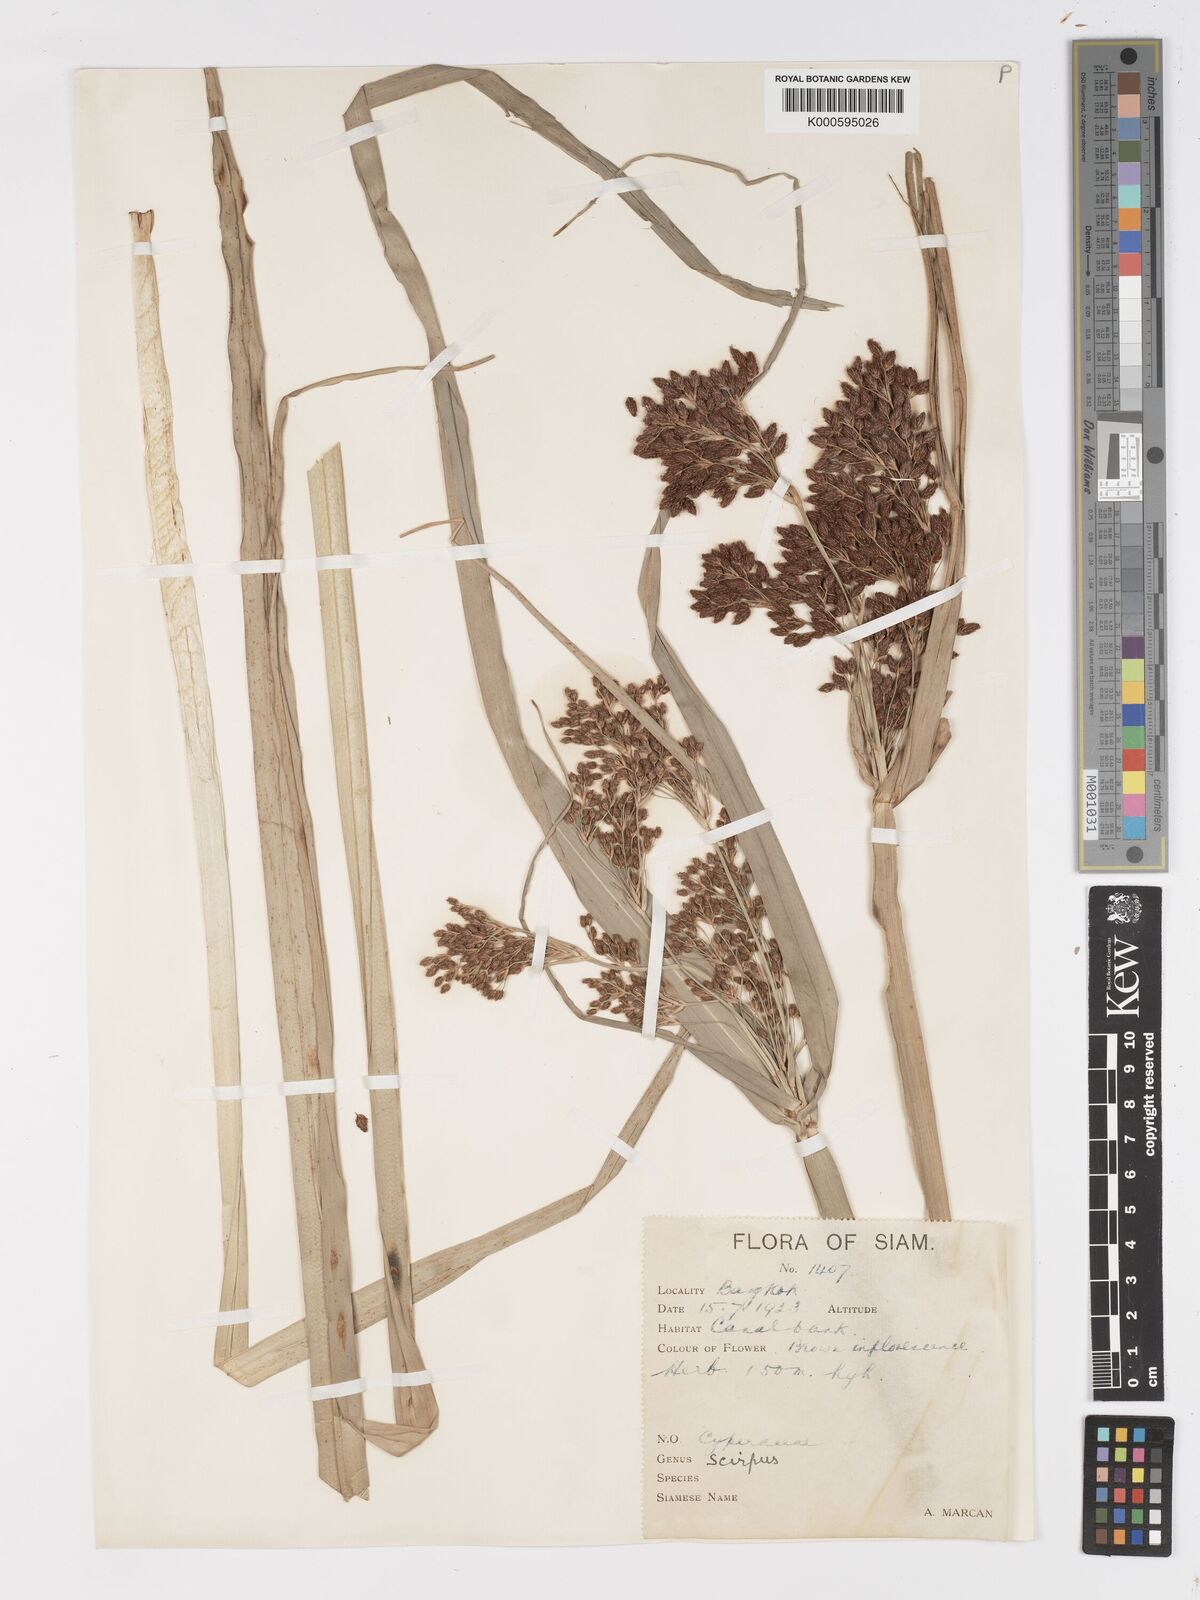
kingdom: Plantae
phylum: Tracheophyta
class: Liliopsida
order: Poales
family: Cyperaceae
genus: Actinoscirpus
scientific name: Actinoscirpus grossus
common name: Giant bur rush
